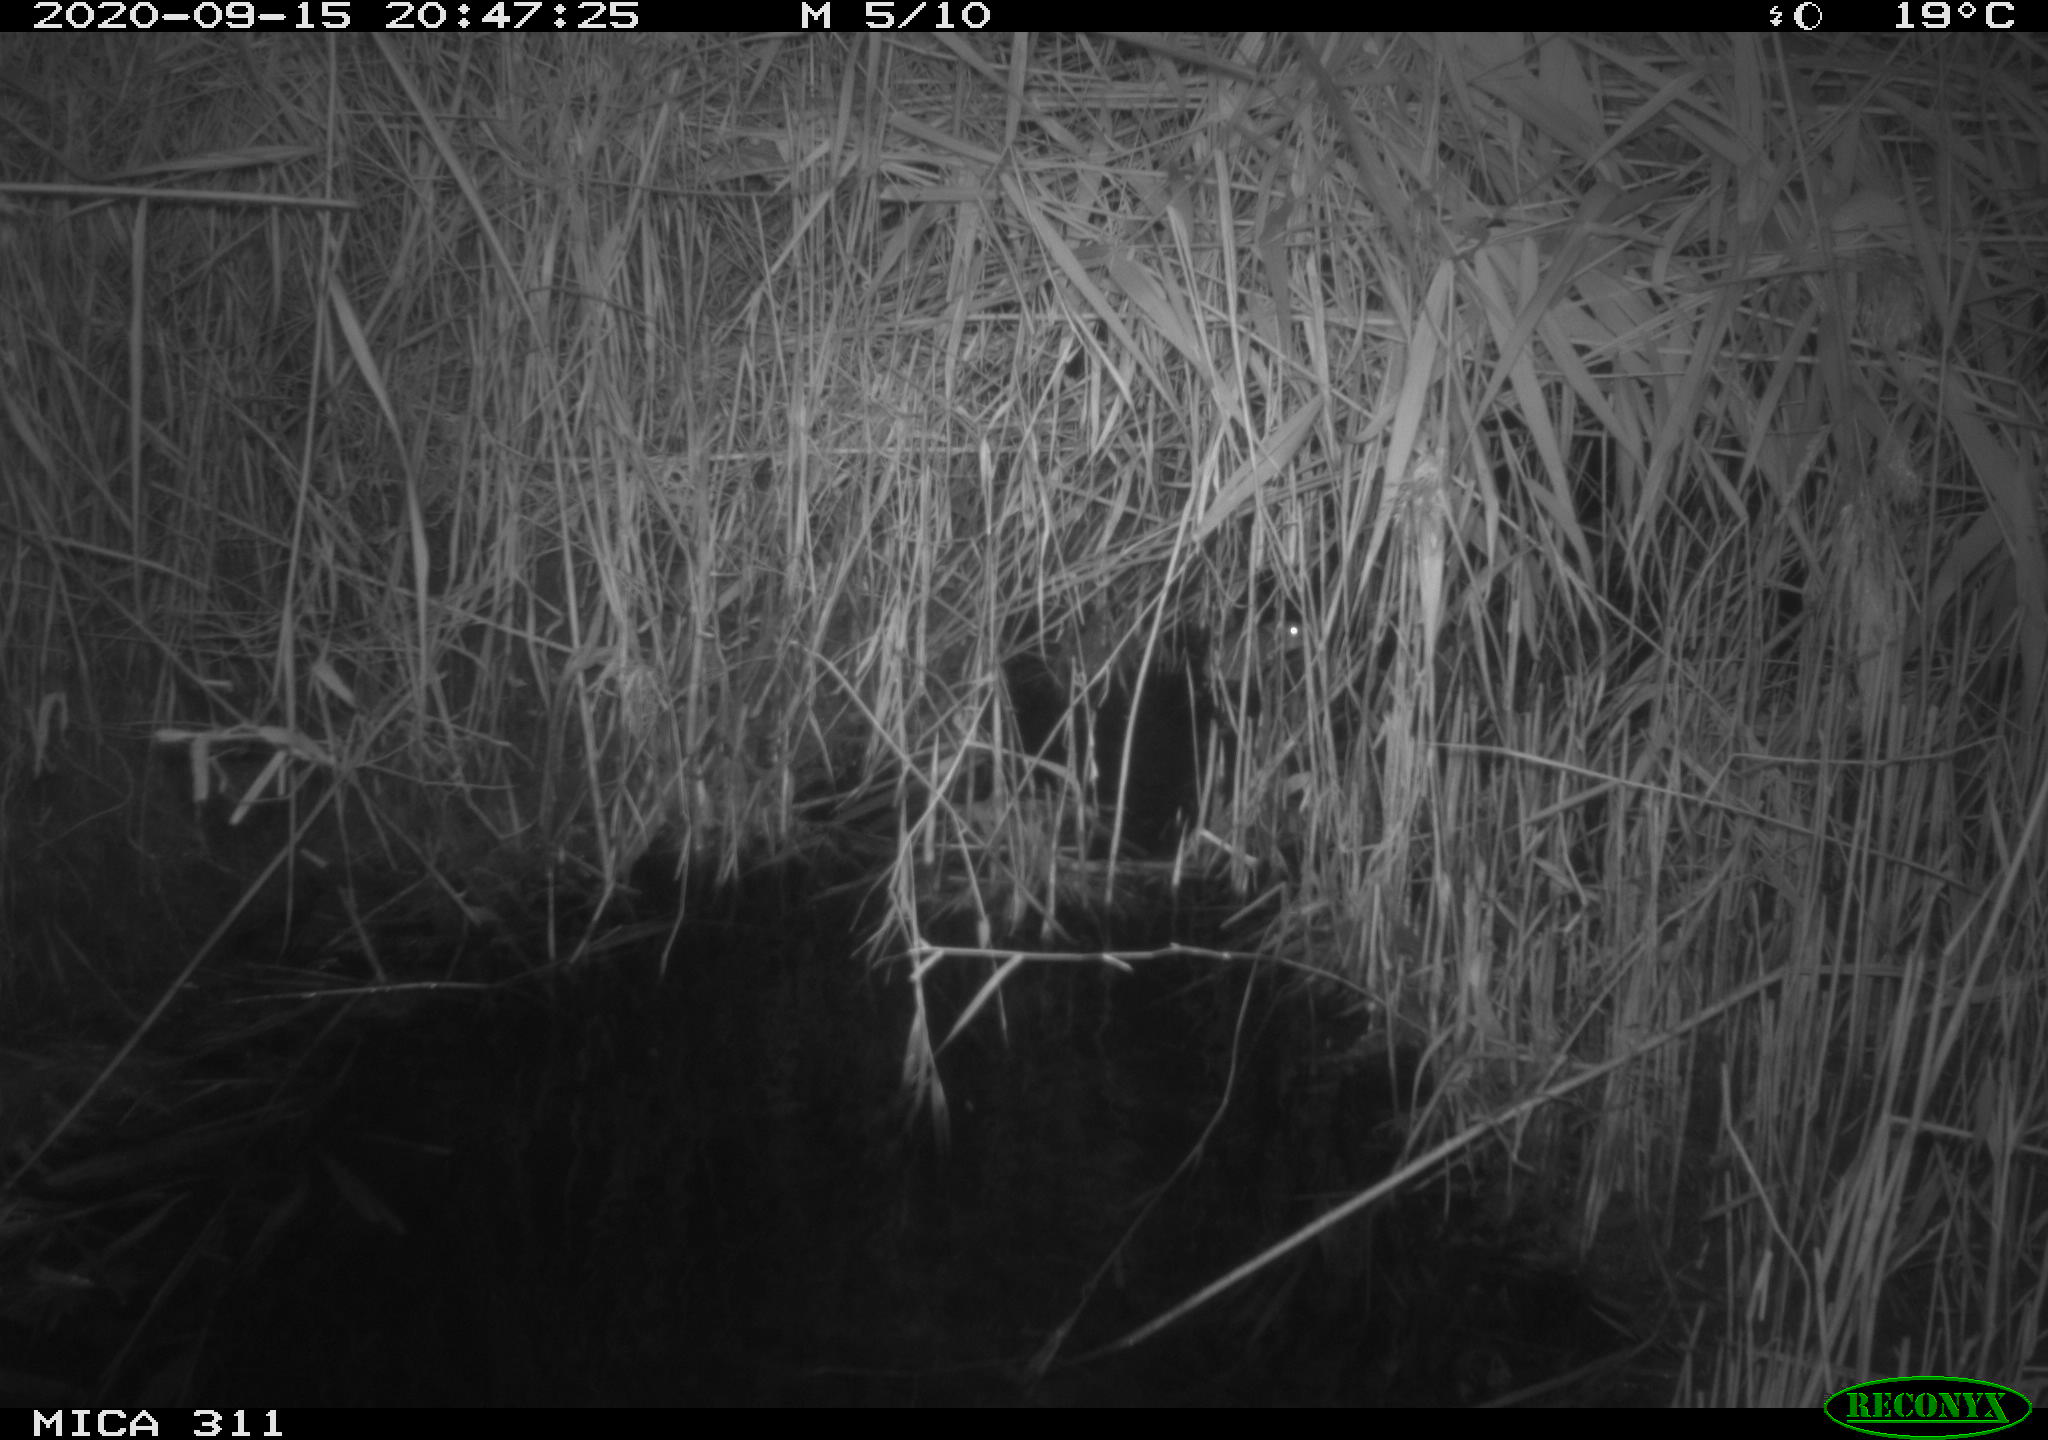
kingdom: Animalia
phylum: Chordata
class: Mammalia
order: Rodentia
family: Muridae
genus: Rattus
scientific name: Rattus norvegicus
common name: Brown rat
